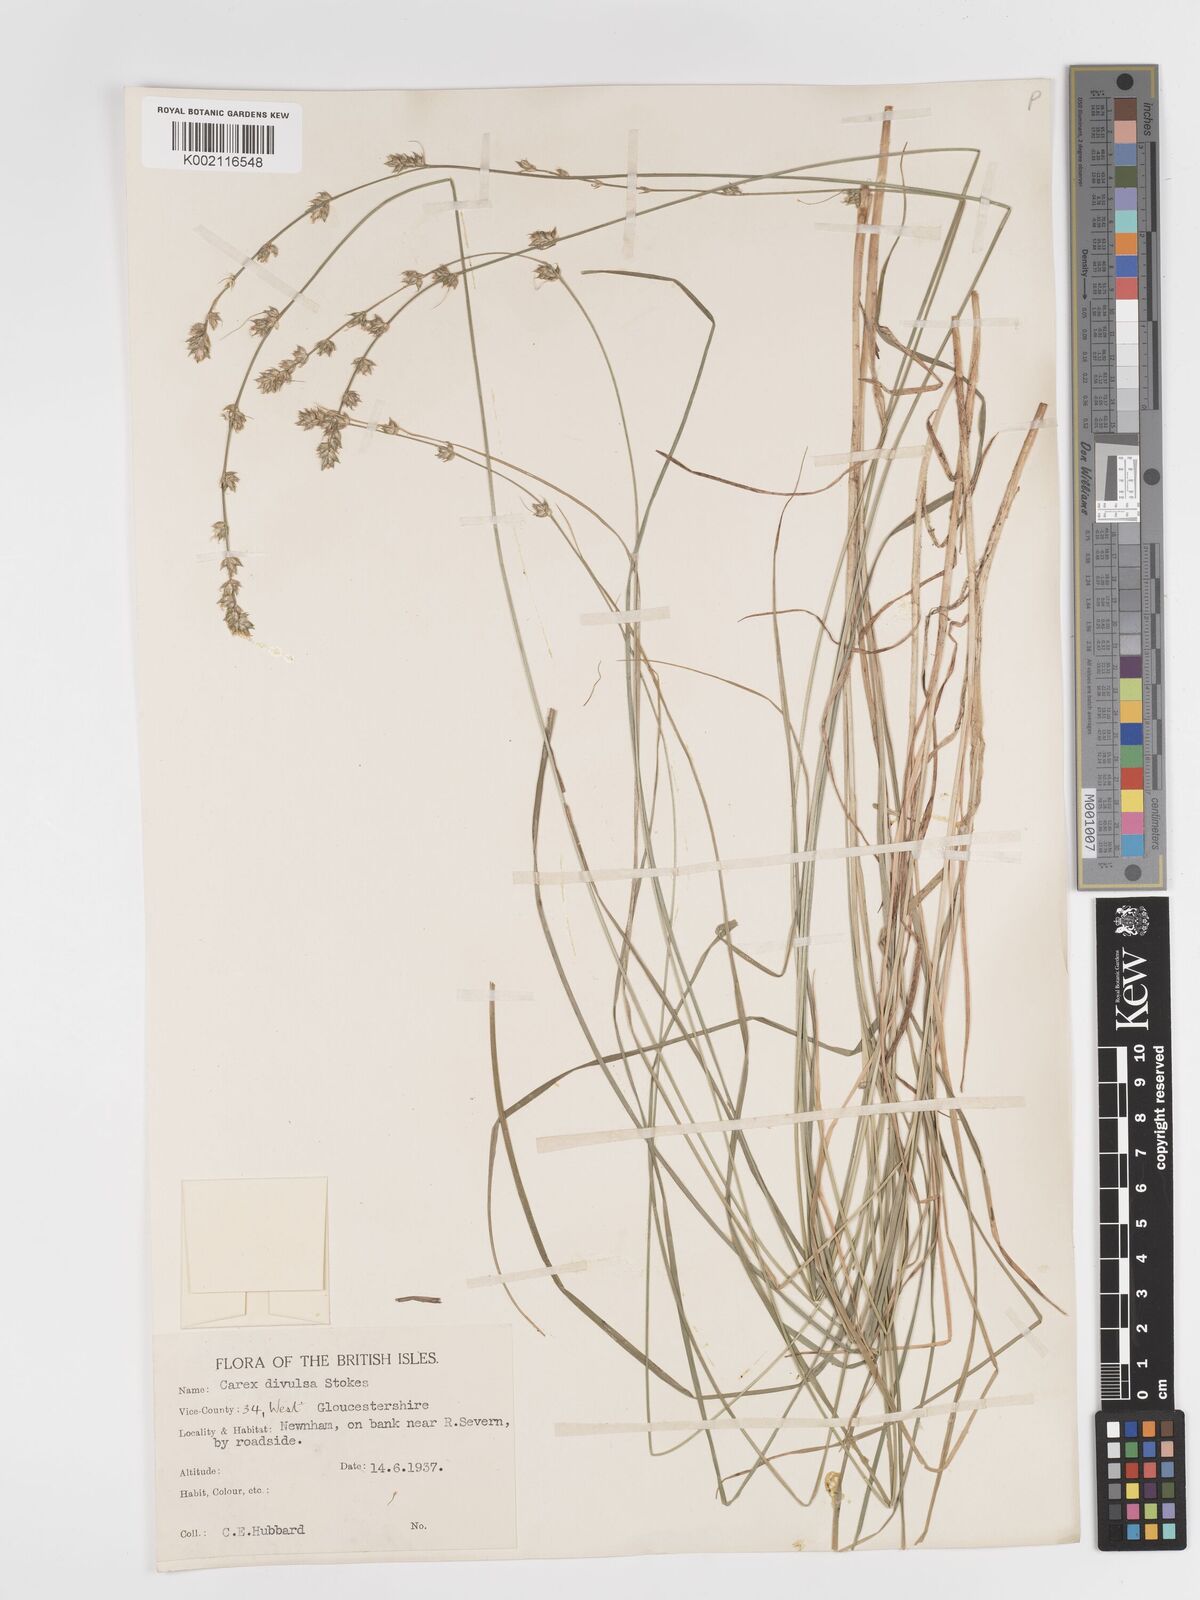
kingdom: Plantae
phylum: Tracheophyta
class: Liliopsida
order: Poales
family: Cyperaceae
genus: Carex
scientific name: Carex divulsa
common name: Grassland sedge
